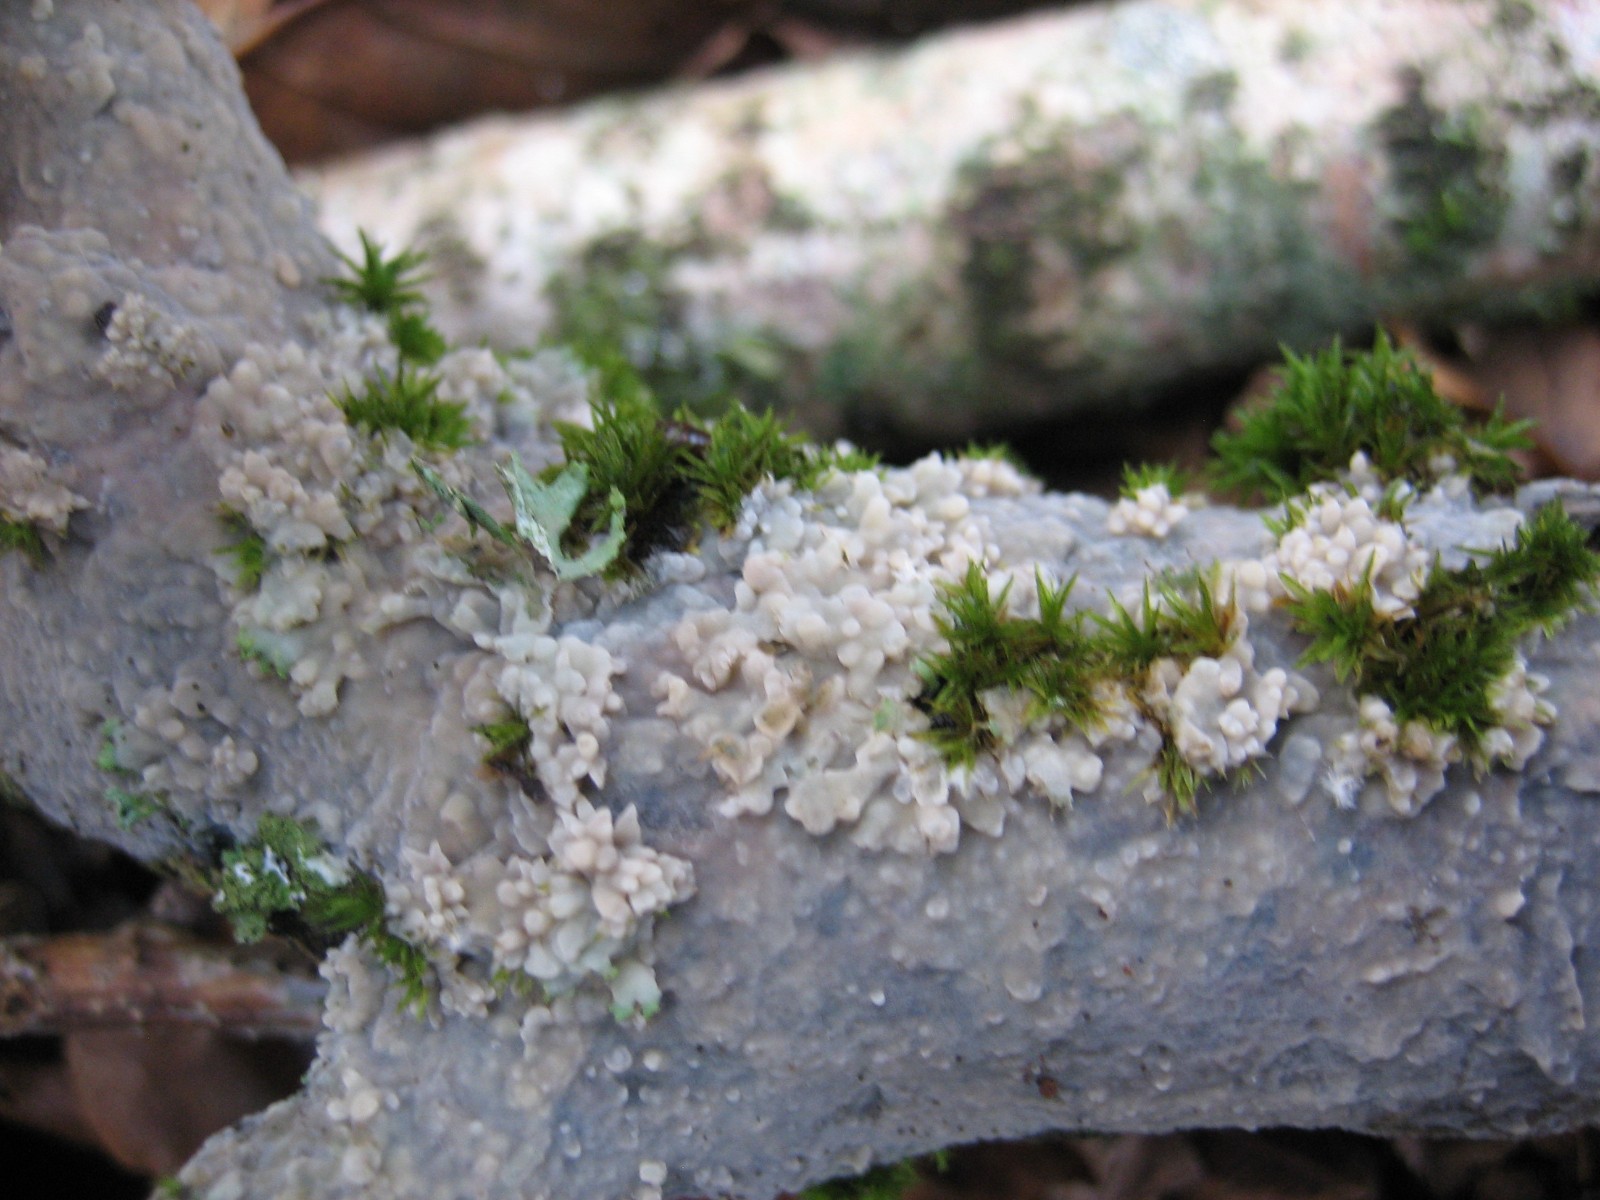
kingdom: Fungi
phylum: Basidiomycota
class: Agaricomycetes
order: Agaricales
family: Radulomycetaceae
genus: Radulomyces
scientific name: Radulomyces confluens
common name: glat naftalinskind
